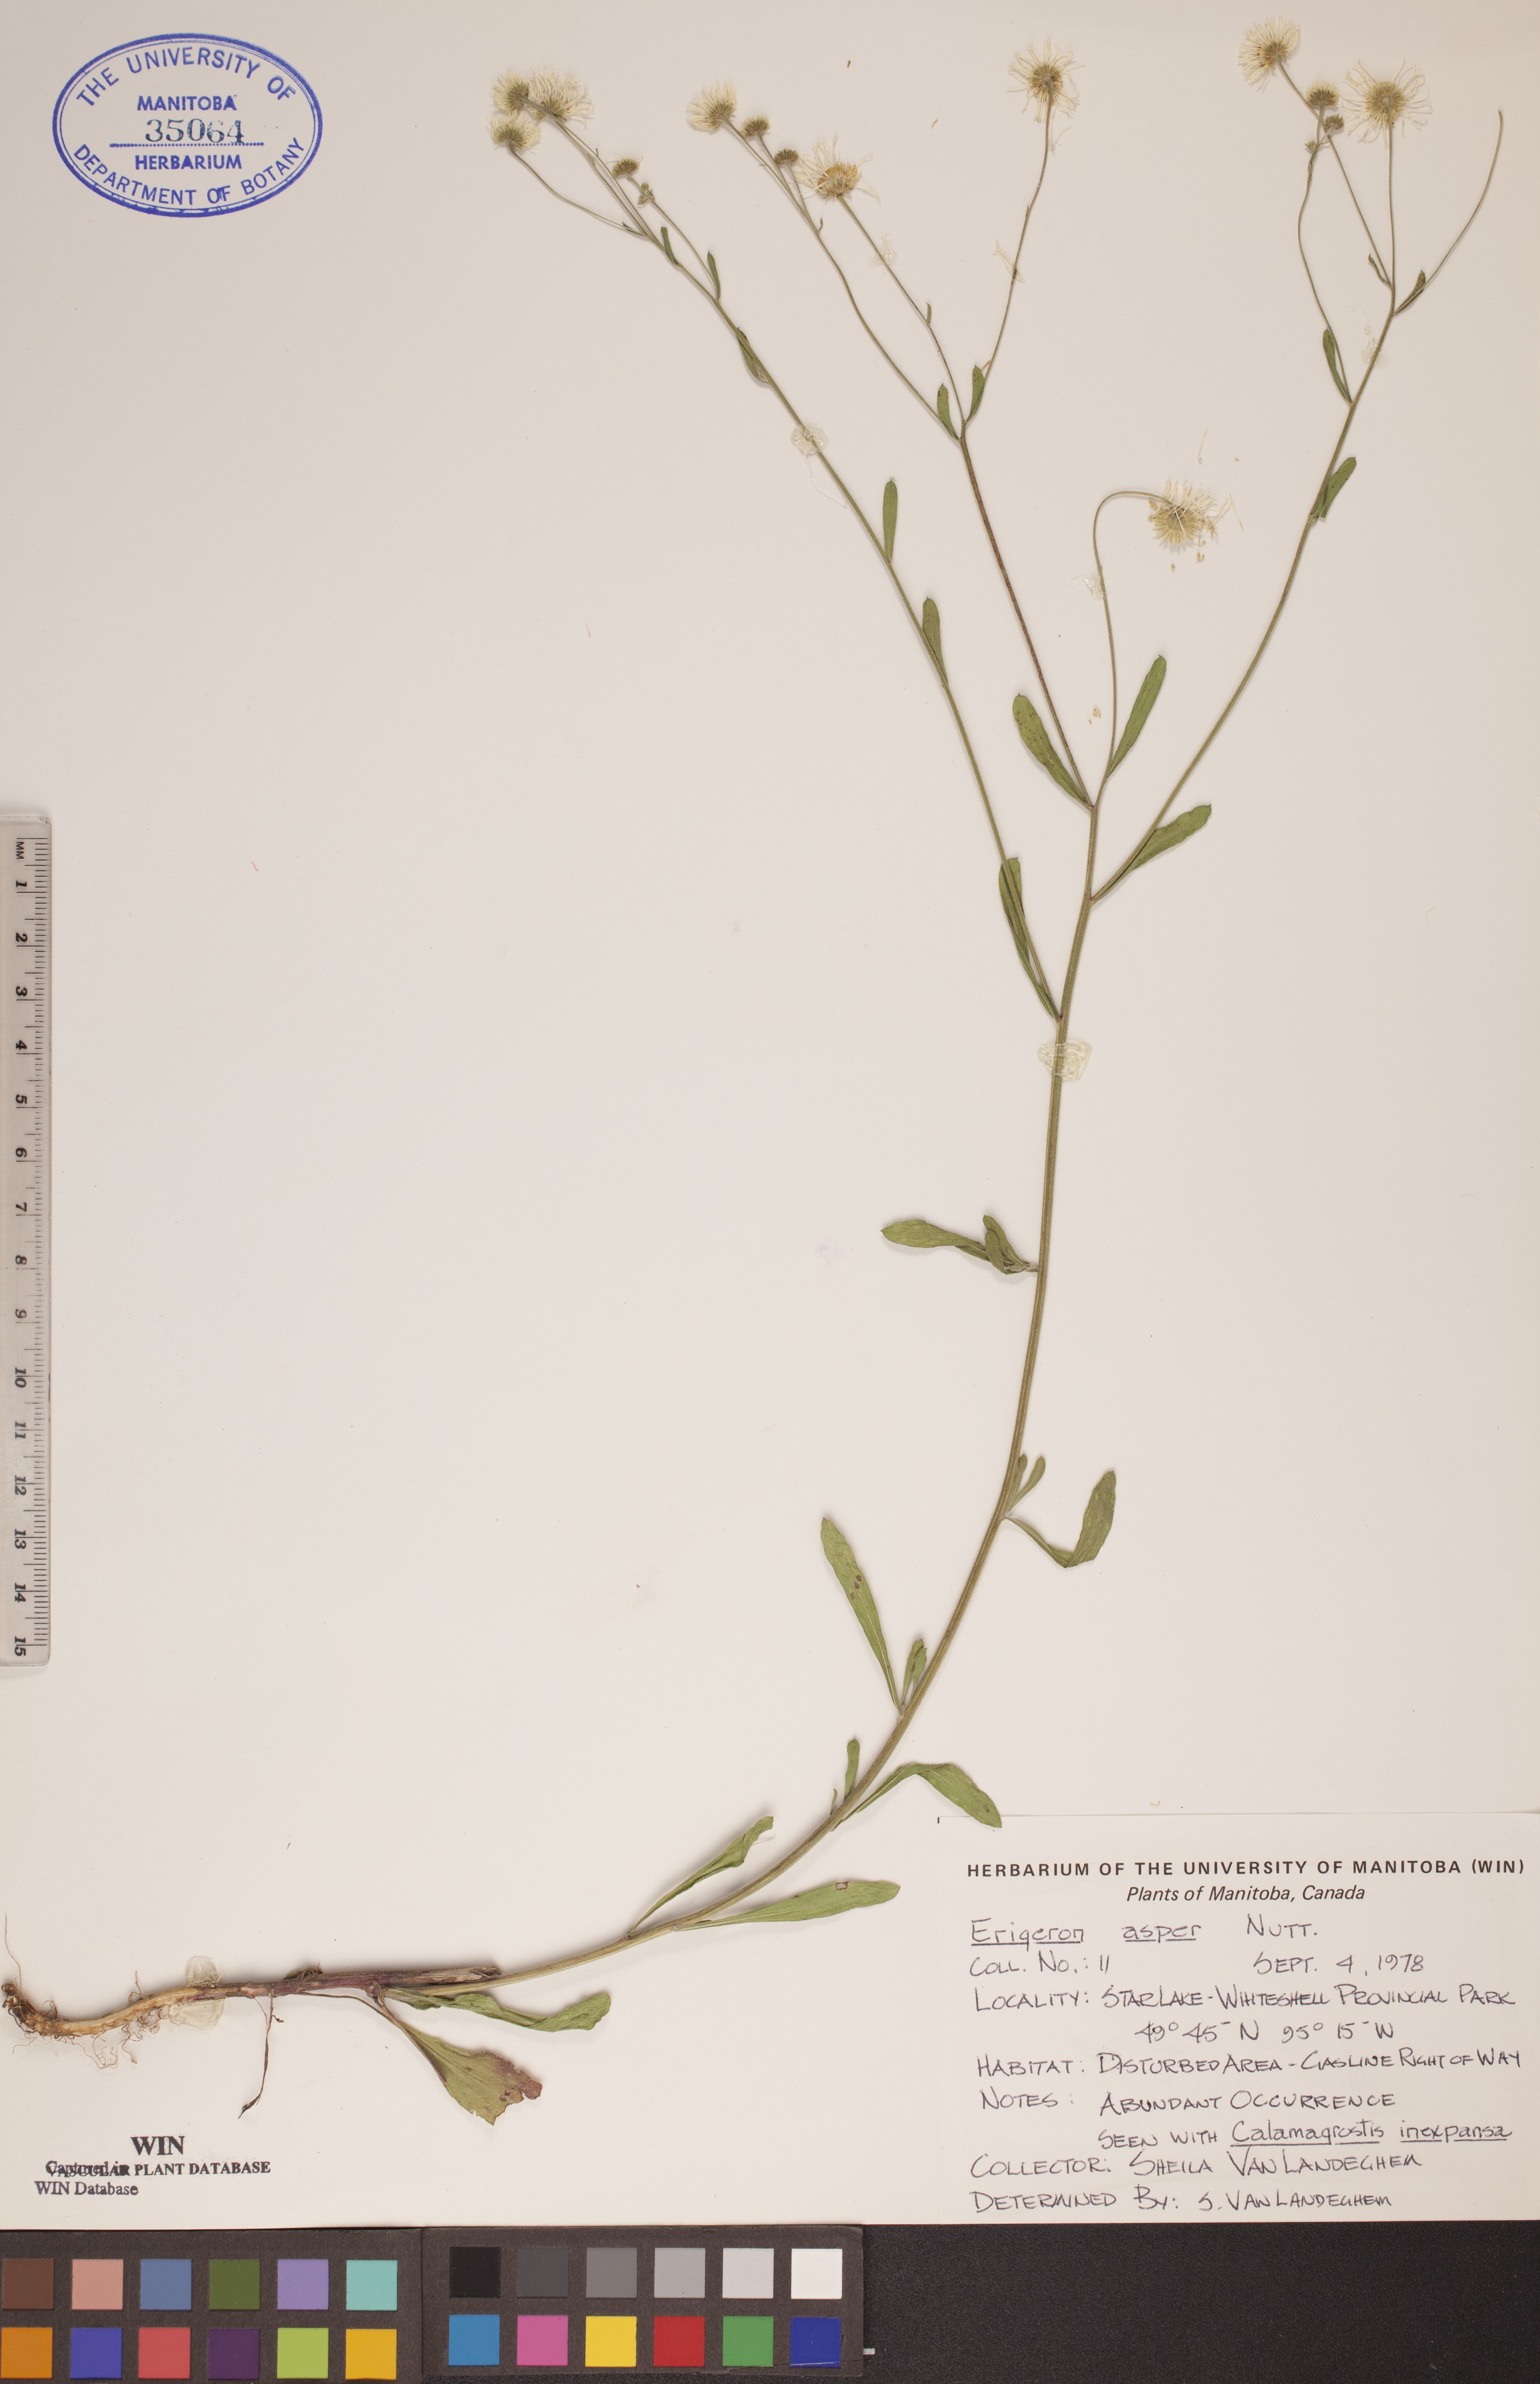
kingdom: Plantae
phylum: Tracheophyta
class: Magnoliopsida
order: Asterales
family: Asteraceae
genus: Erigeron
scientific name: Erigeron glabellus
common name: Smooth fleabane
